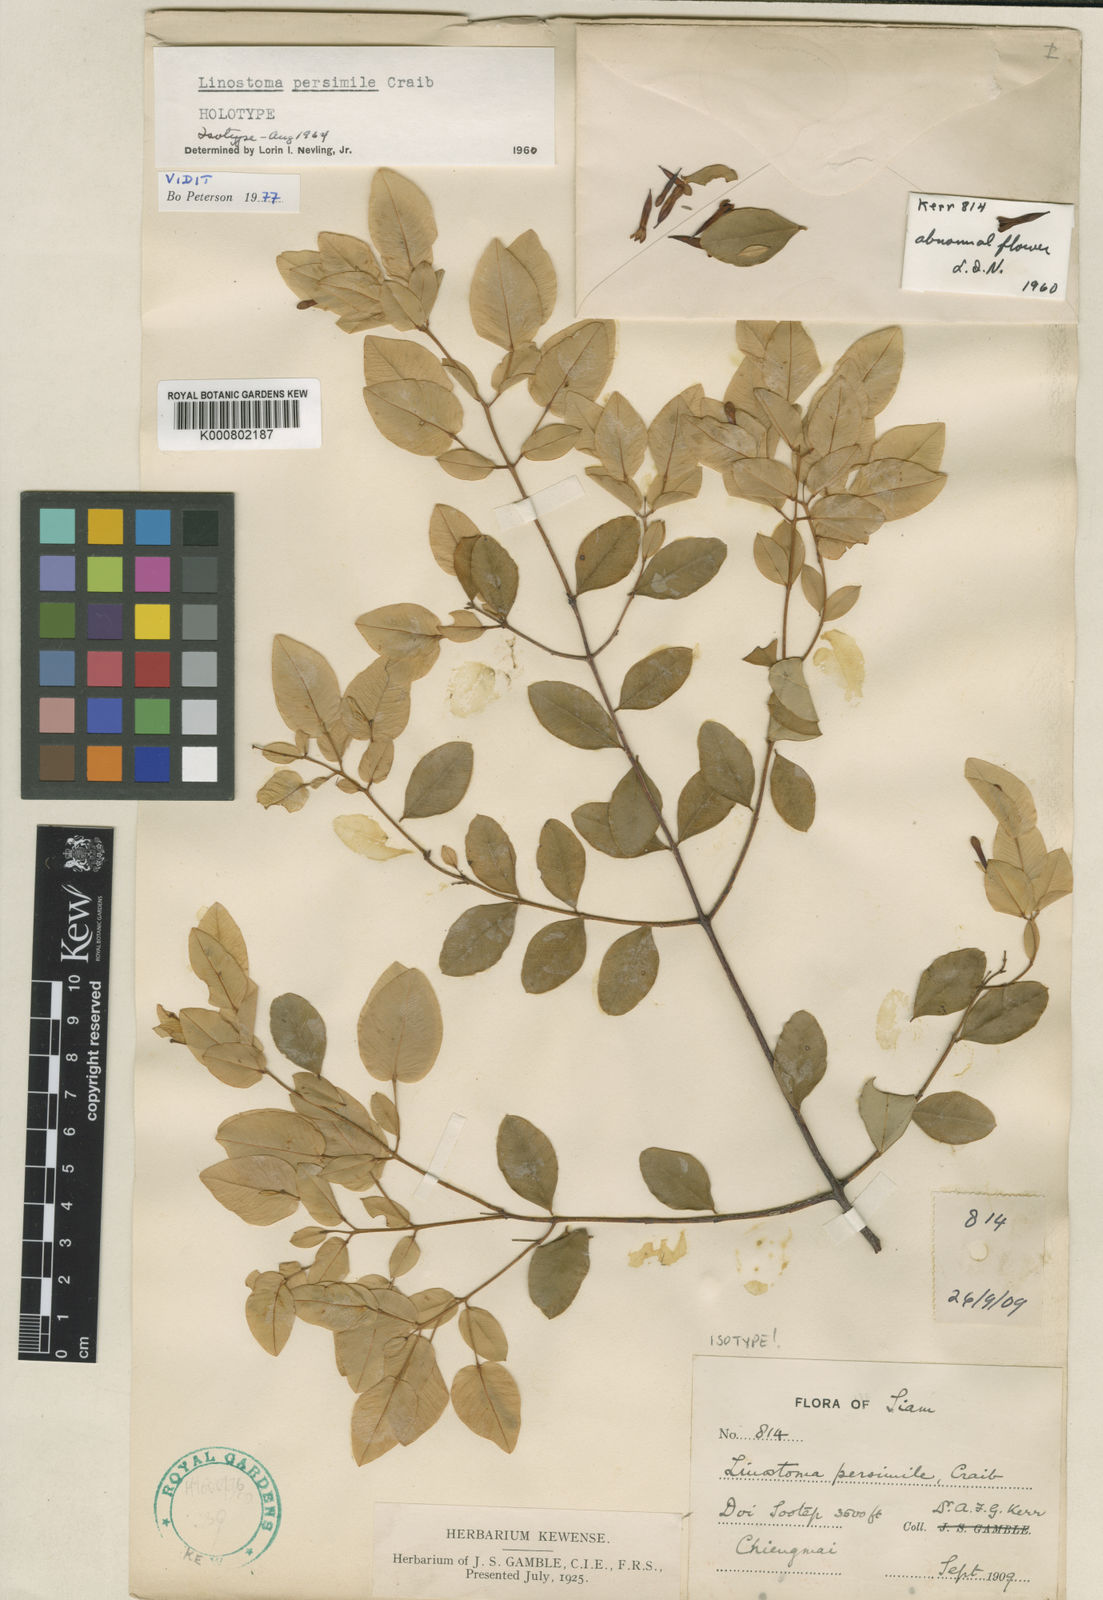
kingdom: Plantae
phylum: Tracheophyta
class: Magnoliopsida
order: Malvales
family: Thymelaeaceae
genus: Linostoma
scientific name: Linostoma persimile
